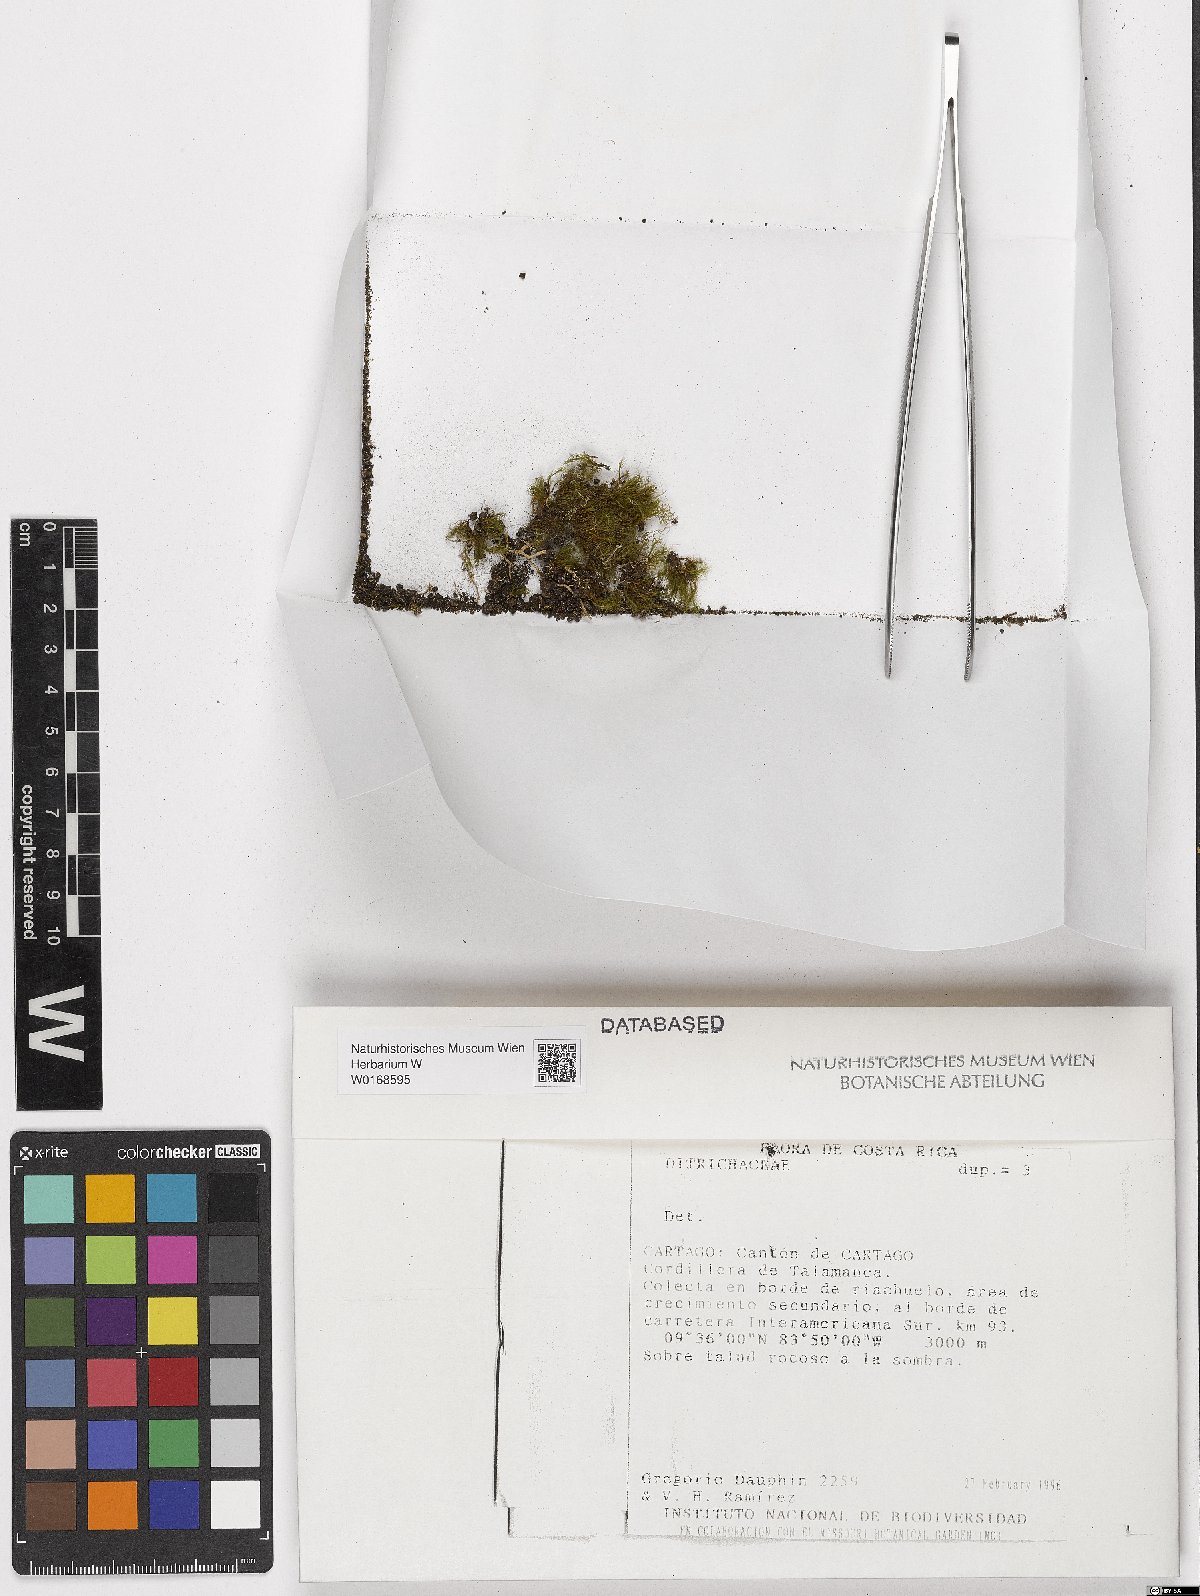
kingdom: Plantae
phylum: Bryophyta
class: Bryopsida
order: Dicranales
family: Ditrichaceae
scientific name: Ditrichaceae
